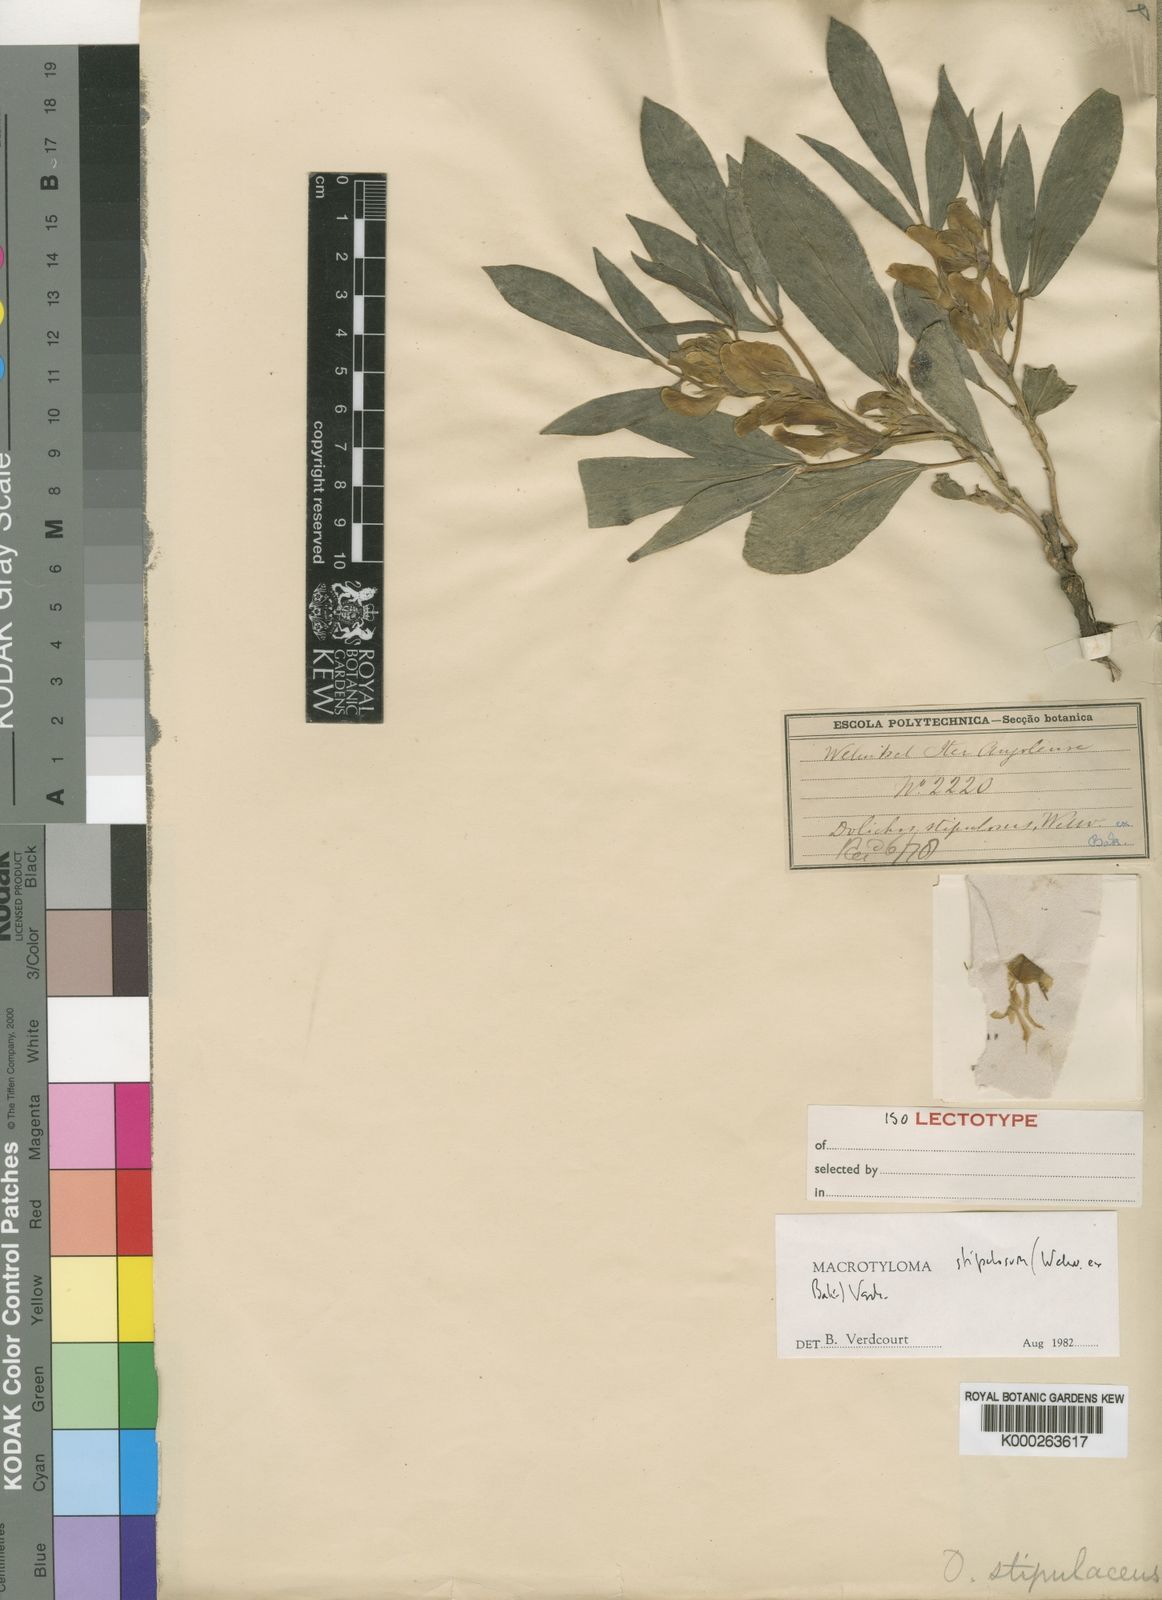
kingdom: Plantae
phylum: Tracheophyta
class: Magnoliopsida
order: Fabales
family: Fabaceae
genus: Macrotyloma
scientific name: Macrotyloma stipulosum
